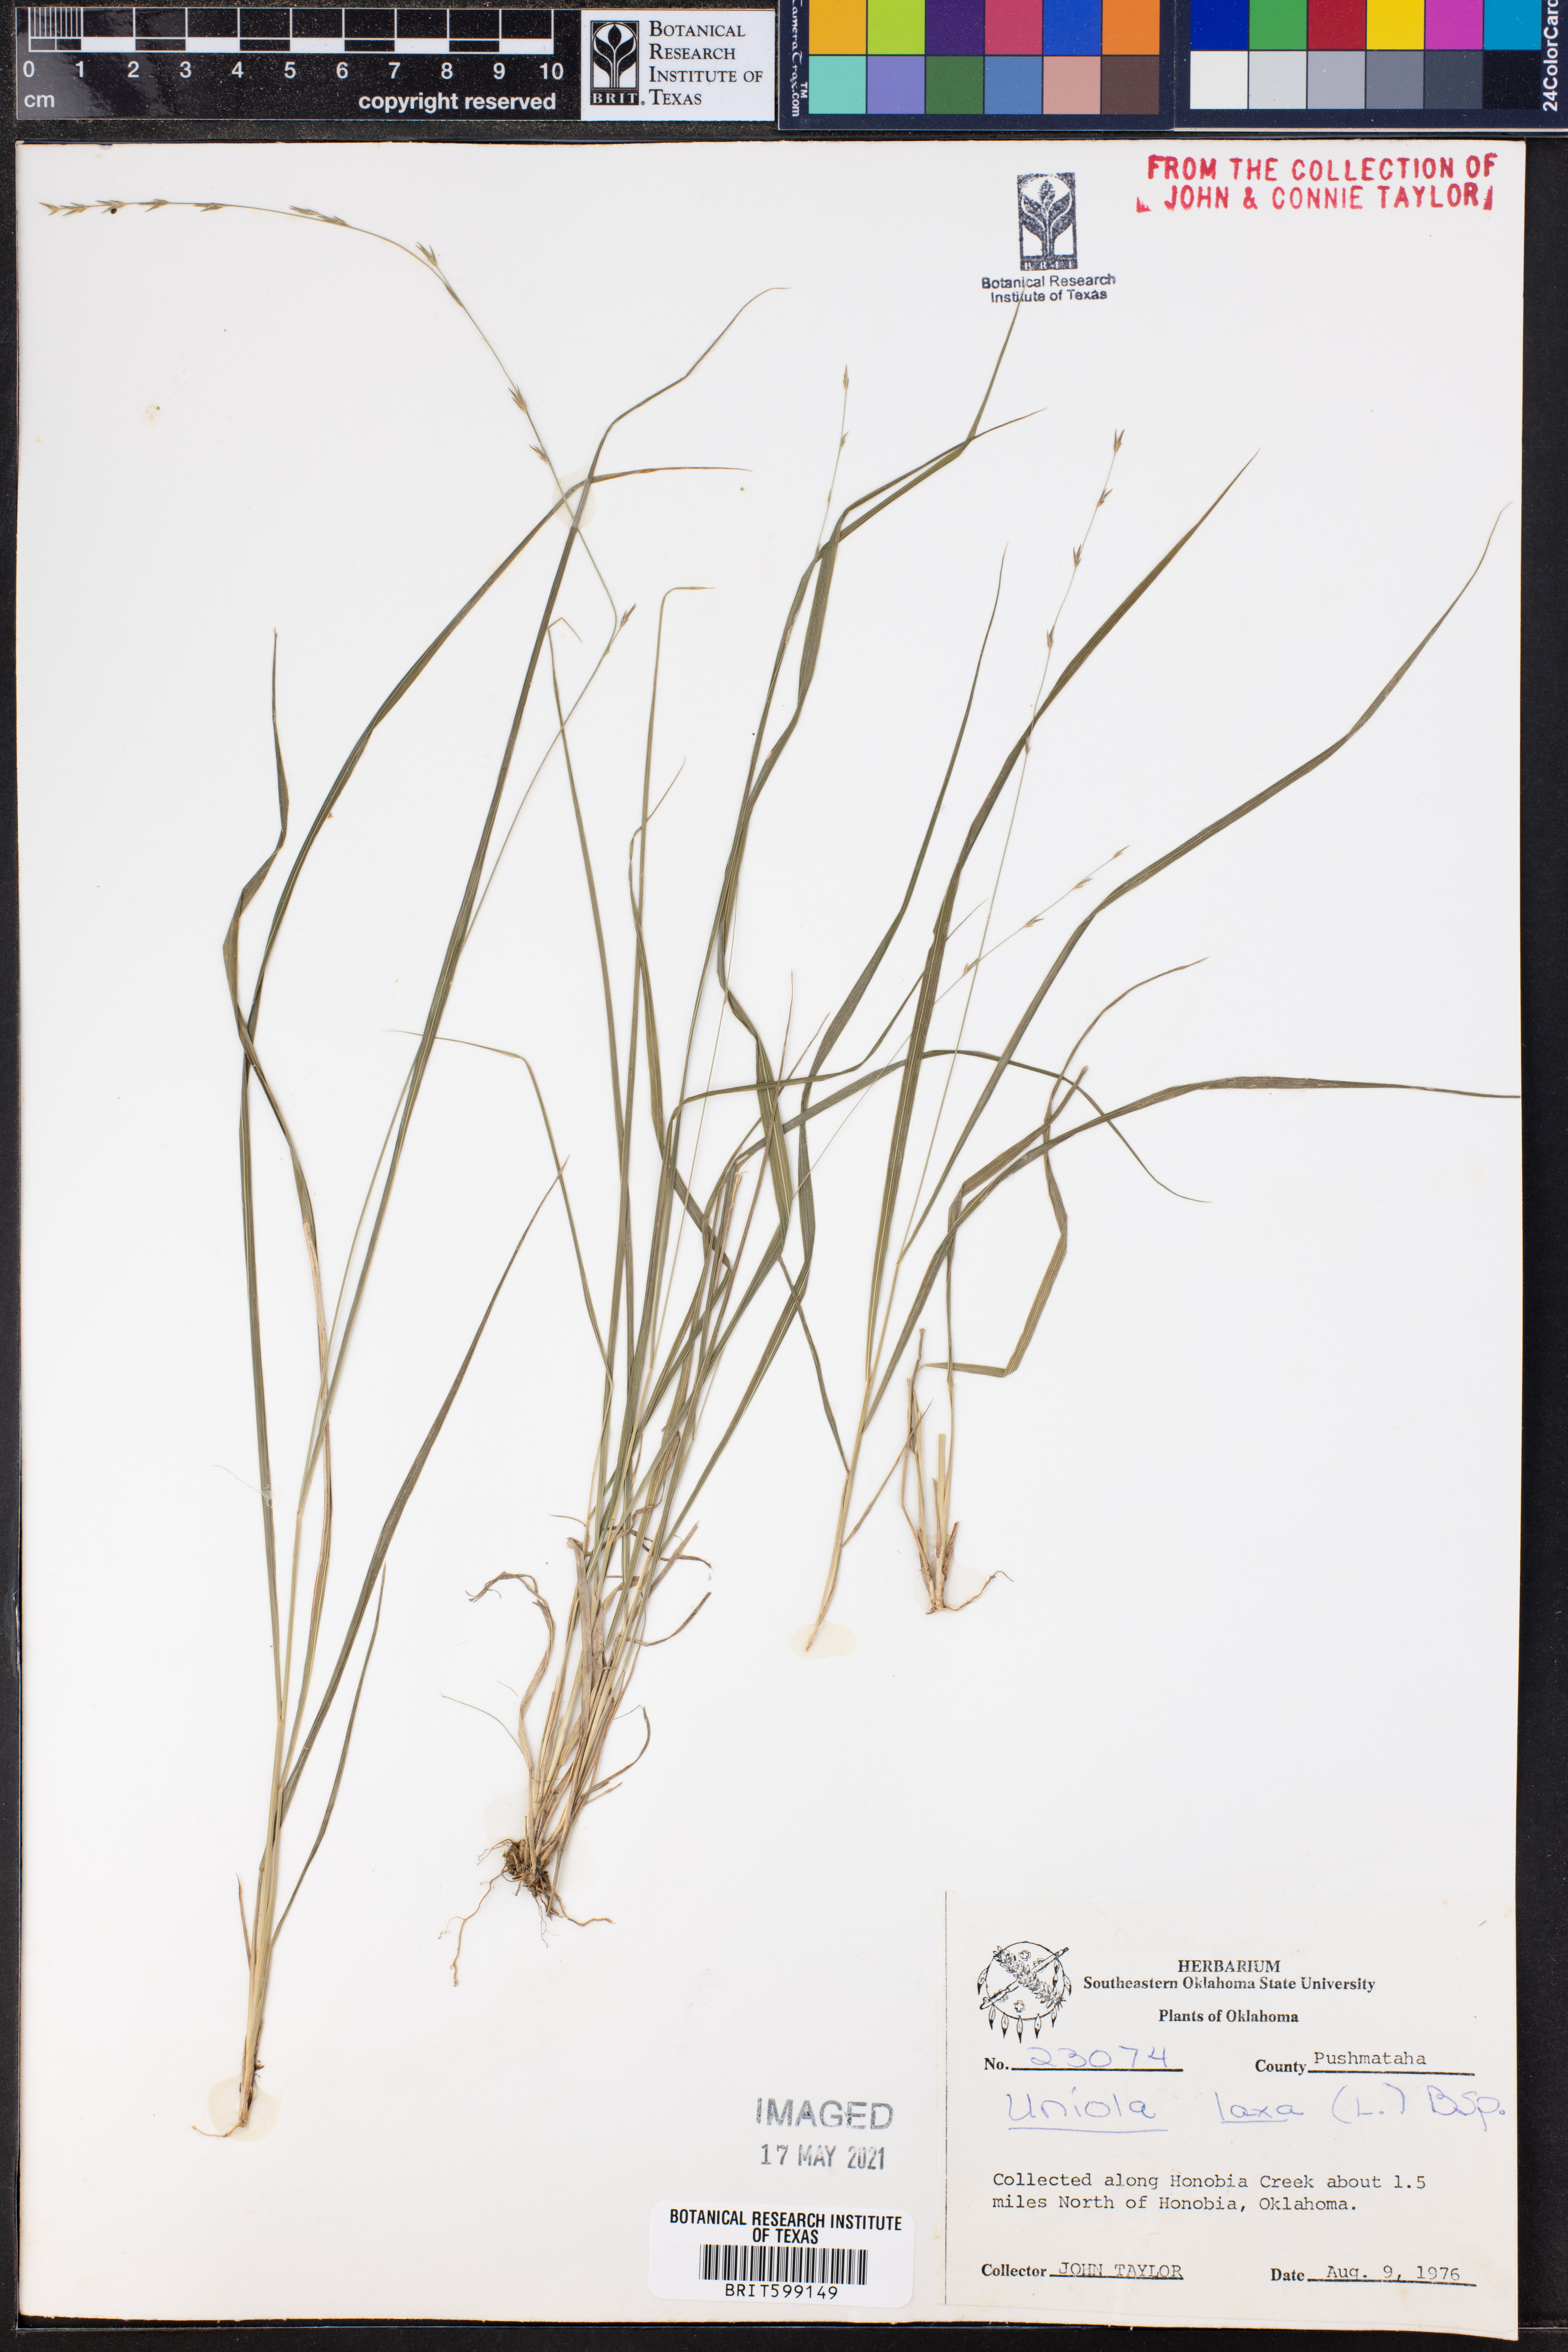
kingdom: Plantae
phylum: Tracheophyta
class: Liliopsida
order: Poales
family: Poaceae
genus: Chasmanthium
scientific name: Chasmanthium laxum
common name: Slender chasmanthium
